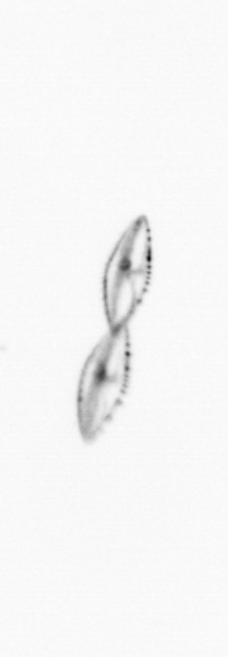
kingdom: Chromista
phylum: Myzozoa
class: Dinophyceae
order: Noctilucales
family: Noctilucaceae
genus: Noctiluca
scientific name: Noctiluca scintillans
